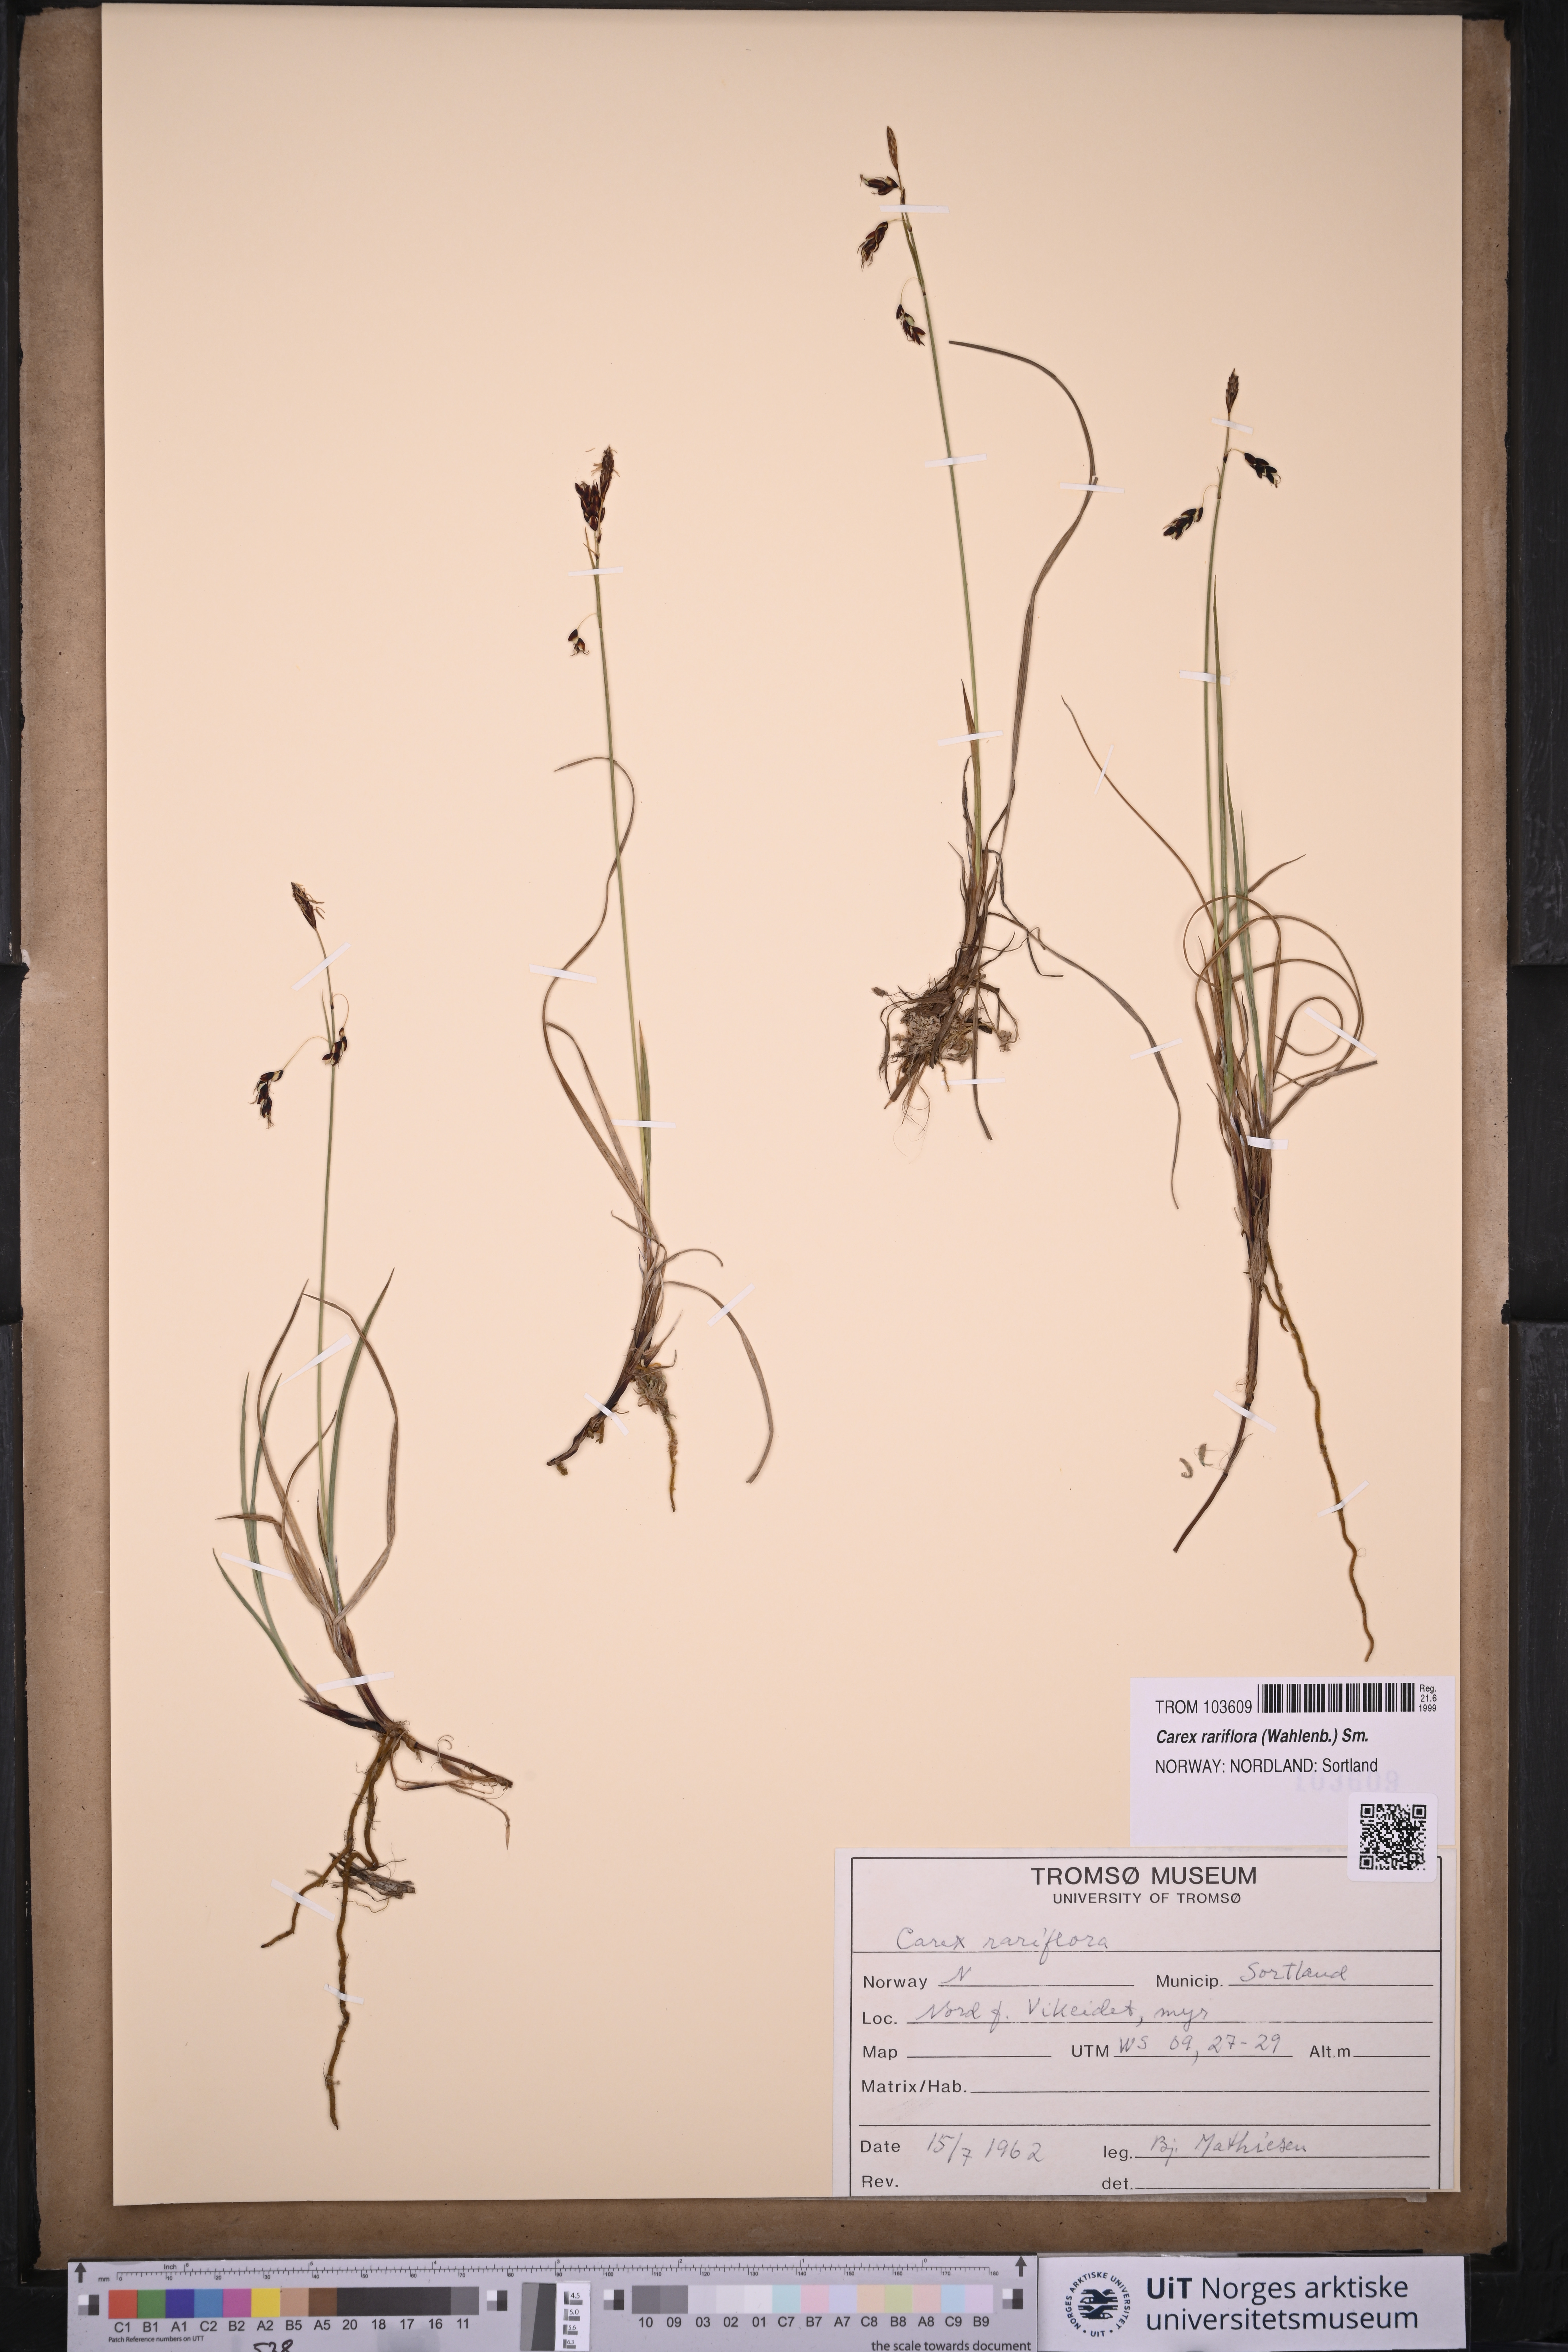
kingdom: Plantae
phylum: Tracheophyta
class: Liliopsida
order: Poales
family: Cyperaceae
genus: Carex
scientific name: Carex rariflora
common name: Loose-flowered alpine sedge
